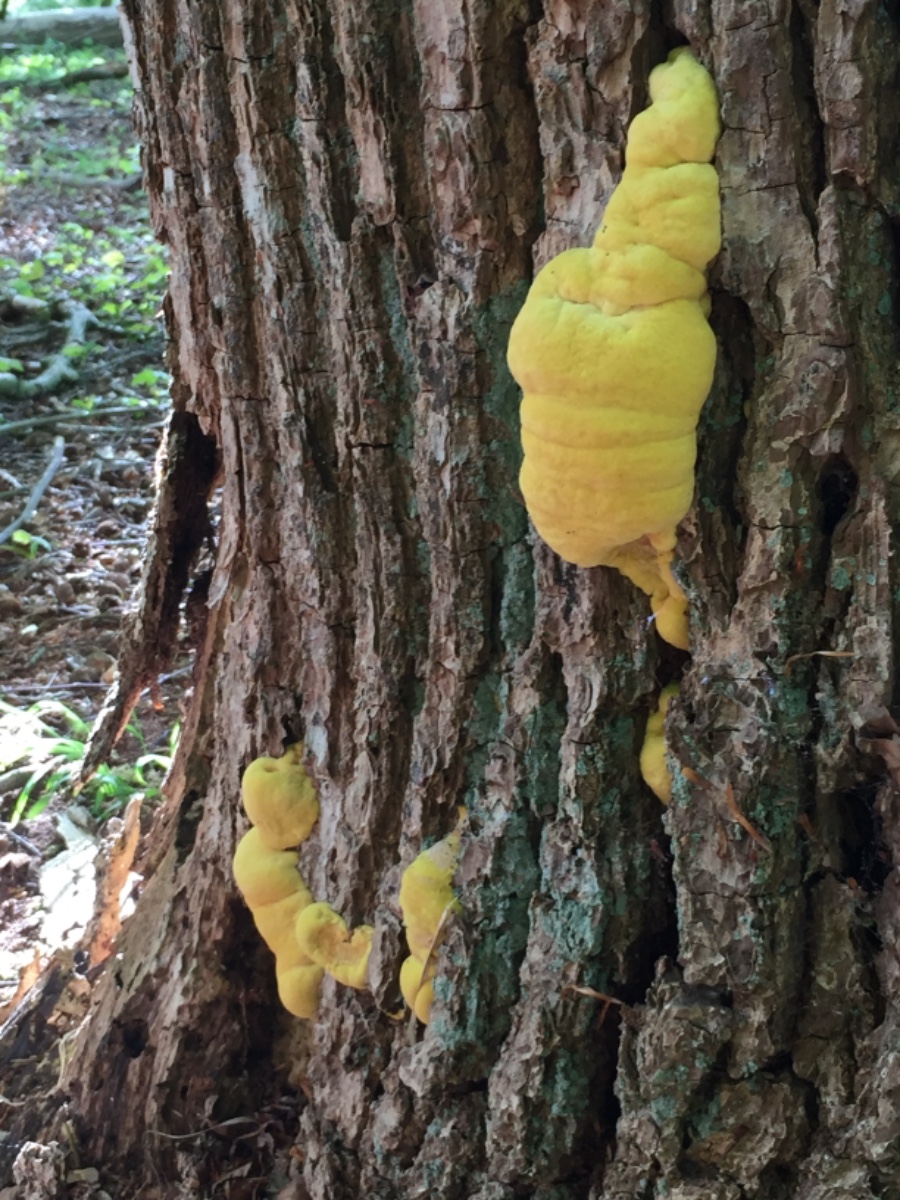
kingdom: Fungi
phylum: Basidiomycota
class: Agaricomycetes
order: Polyporales
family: Laetiporaceae
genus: Laetiporus
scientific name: Laetiporus sulphureus
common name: svovlporesvamp
